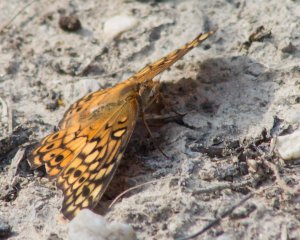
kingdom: Animalia
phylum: Arthropoda
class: Insecta
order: Lepidoptera
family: Nymphalidae
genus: Euptoieta
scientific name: Euptoieta claudia
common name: Variegated Fritillary
